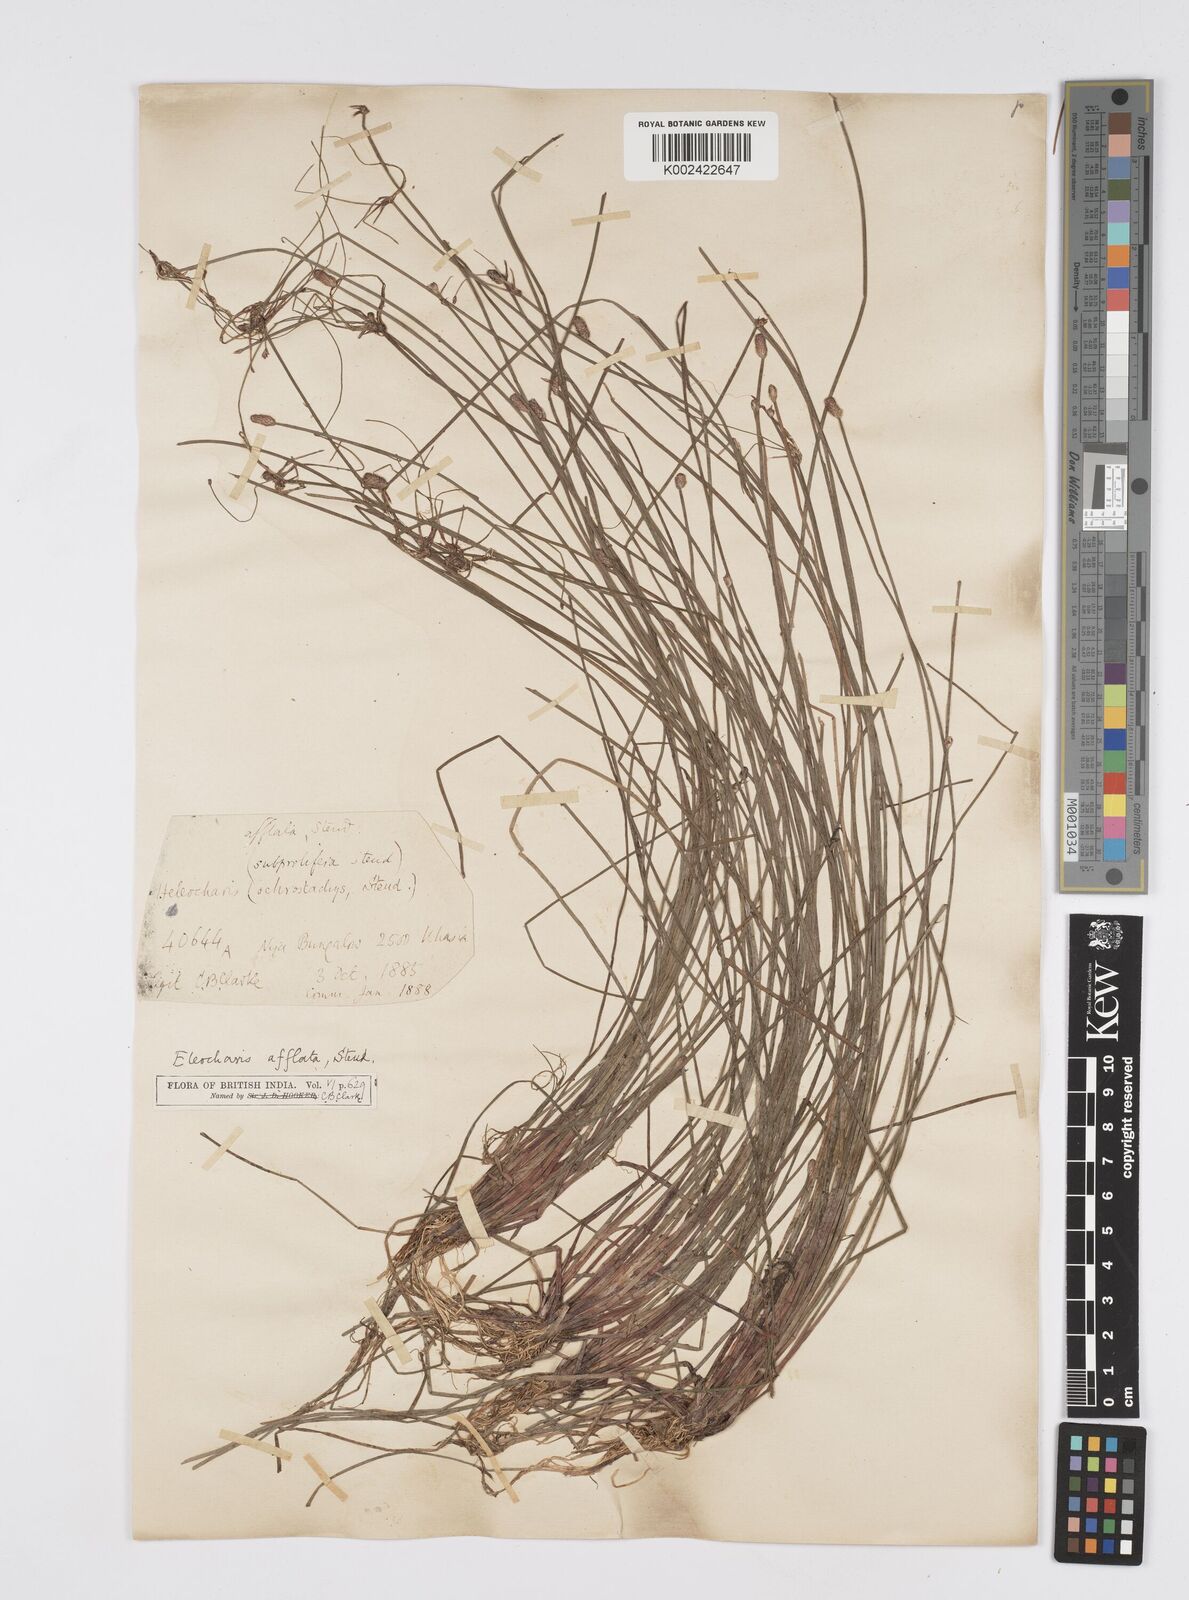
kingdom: Plantae
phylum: Tracheophyta
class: Liliopsida
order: Poales
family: Cyperaceae
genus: Eleocharis
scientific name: Eleocharis pellucida
